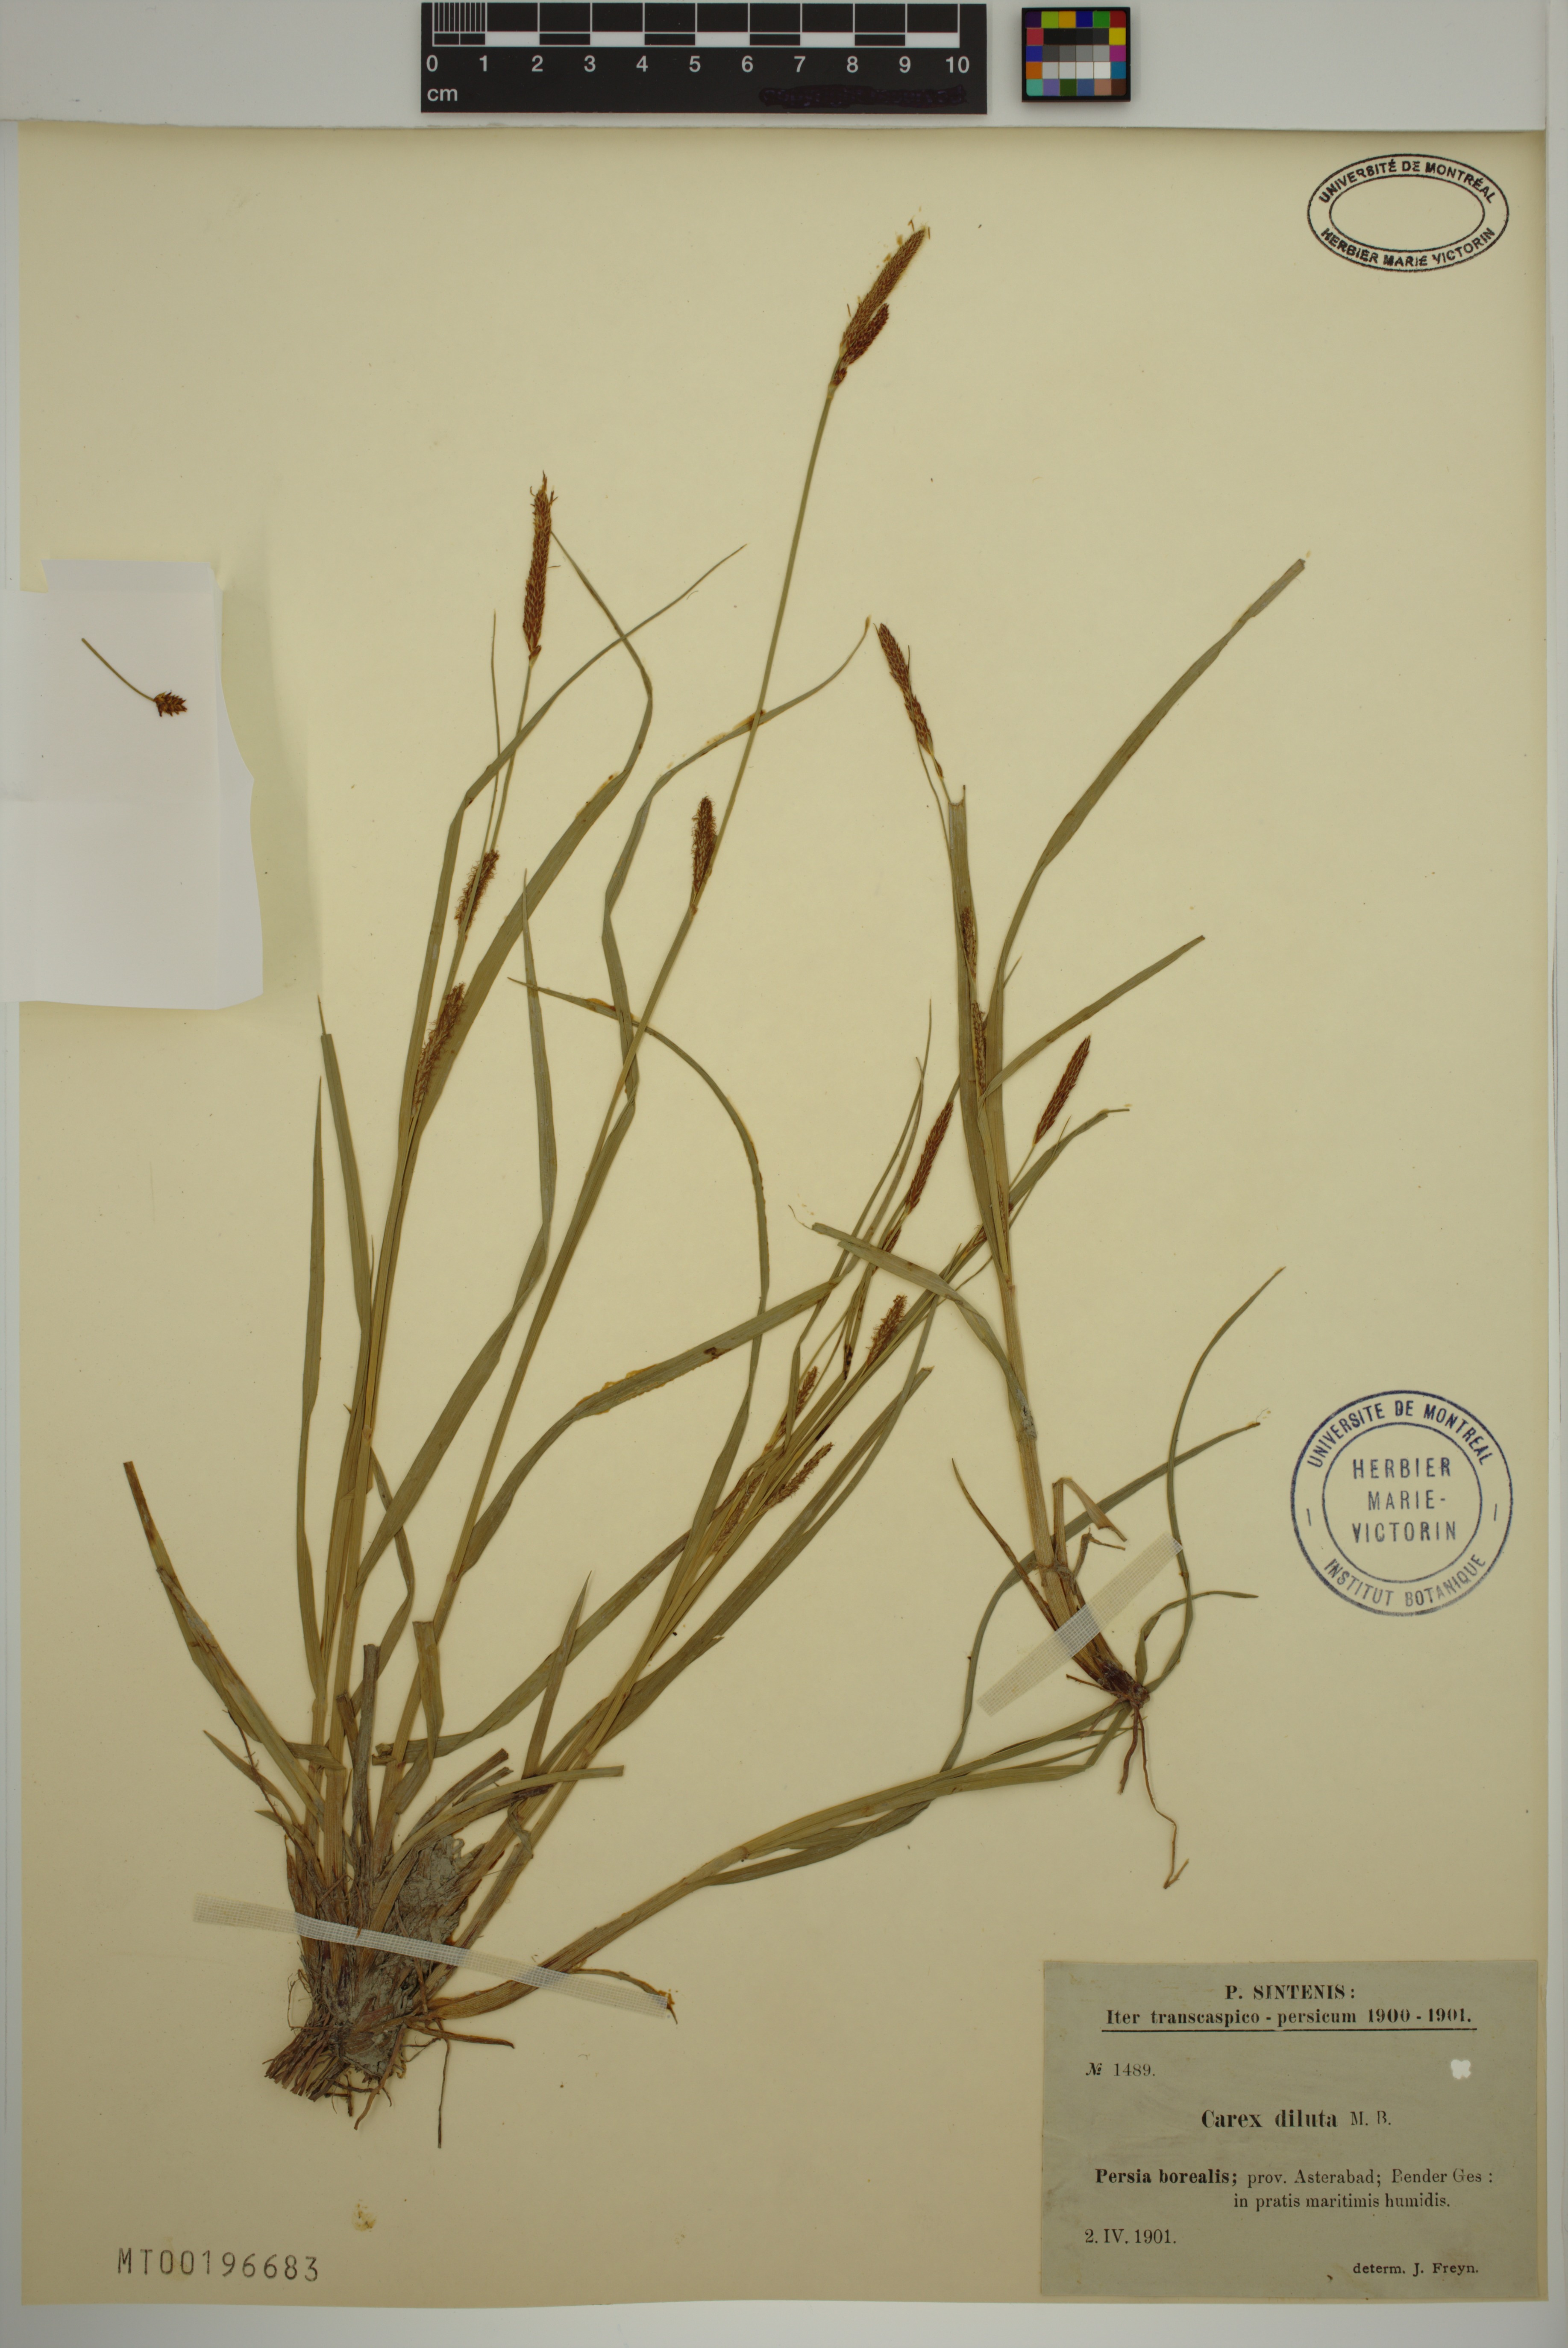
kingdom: Plantae
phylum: Tracheophyta
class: Liliopsida
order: Poales
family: Cyperaceae
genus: Carex
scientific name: Carex diluta
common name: Sedge
